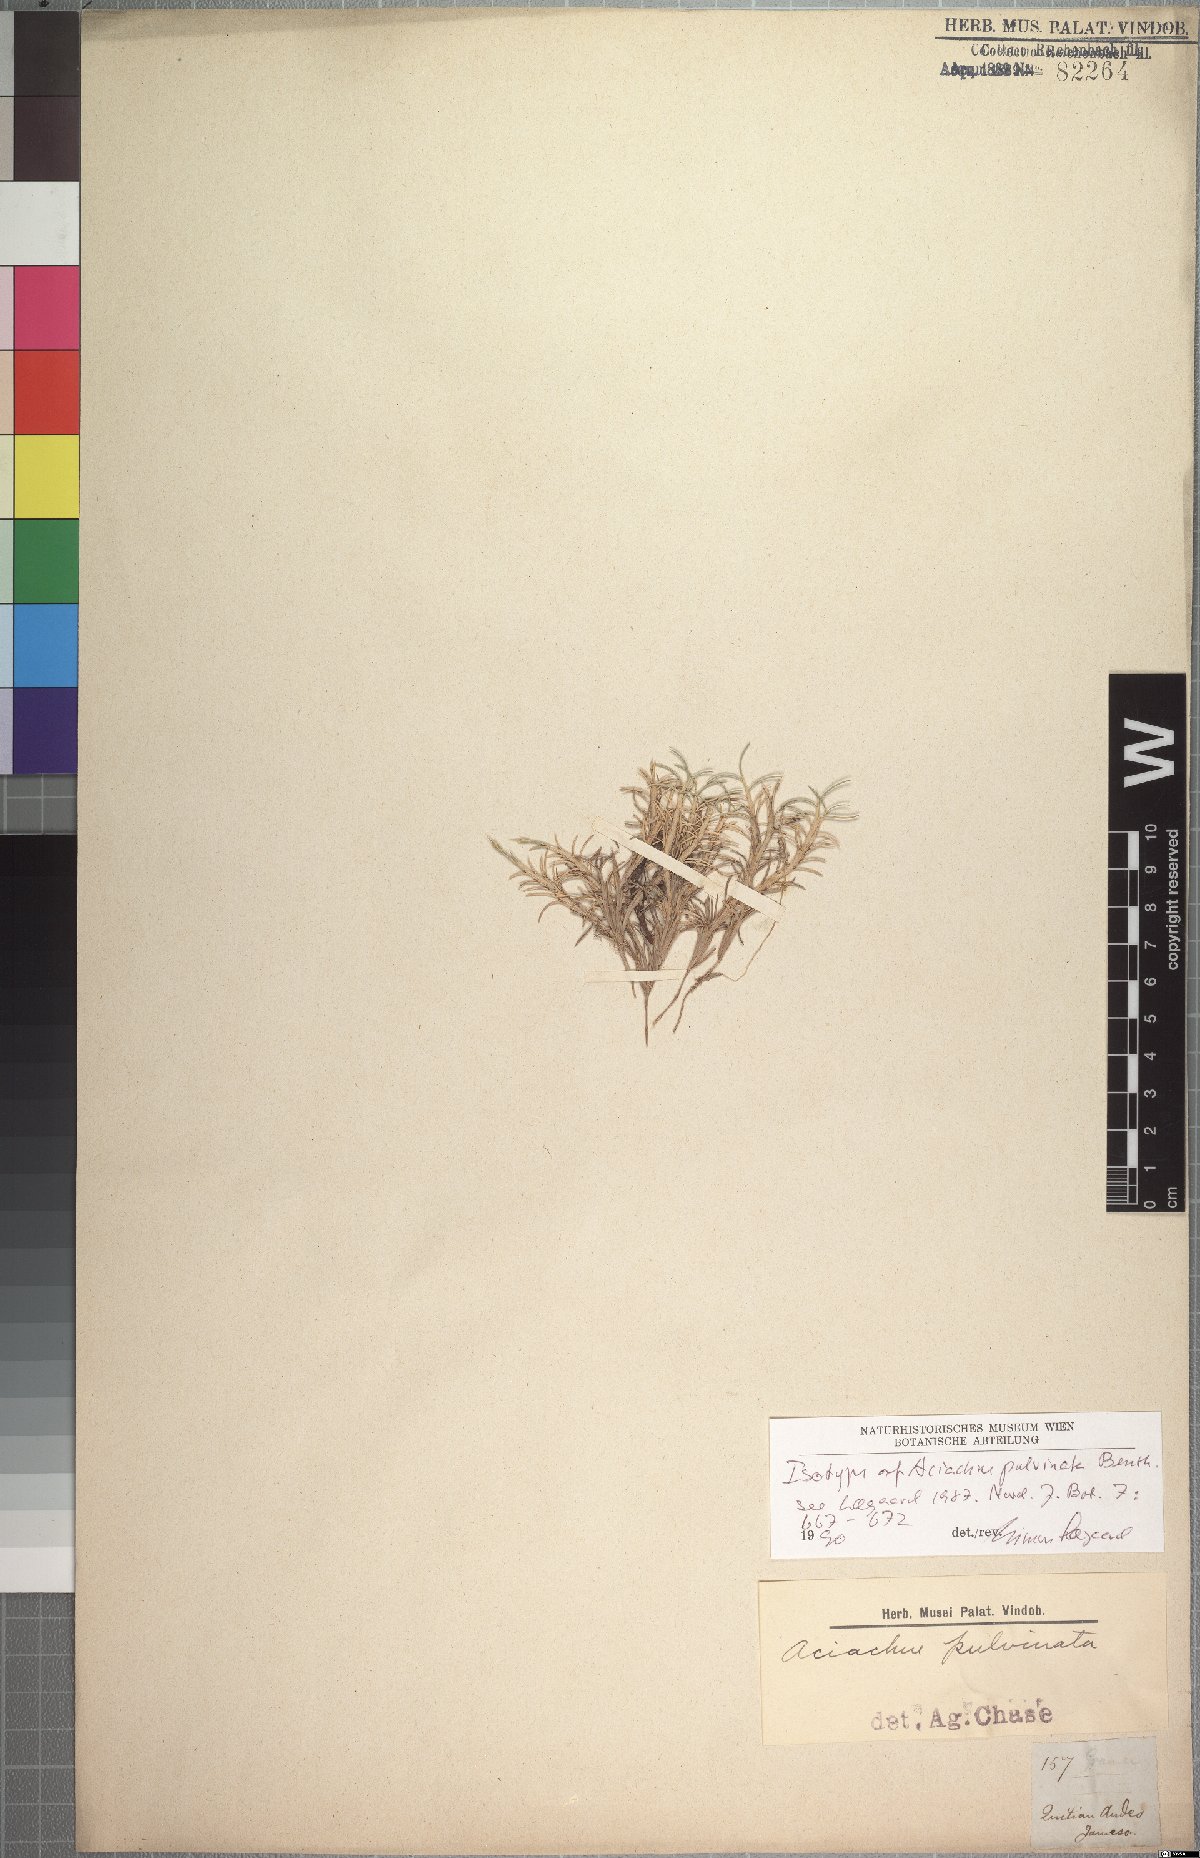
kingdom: Plantae
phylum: Tracheophyta
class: Liliopsida
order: Poales
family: Poaceae
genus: Aciachne
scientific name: Aciachne pulvinata
